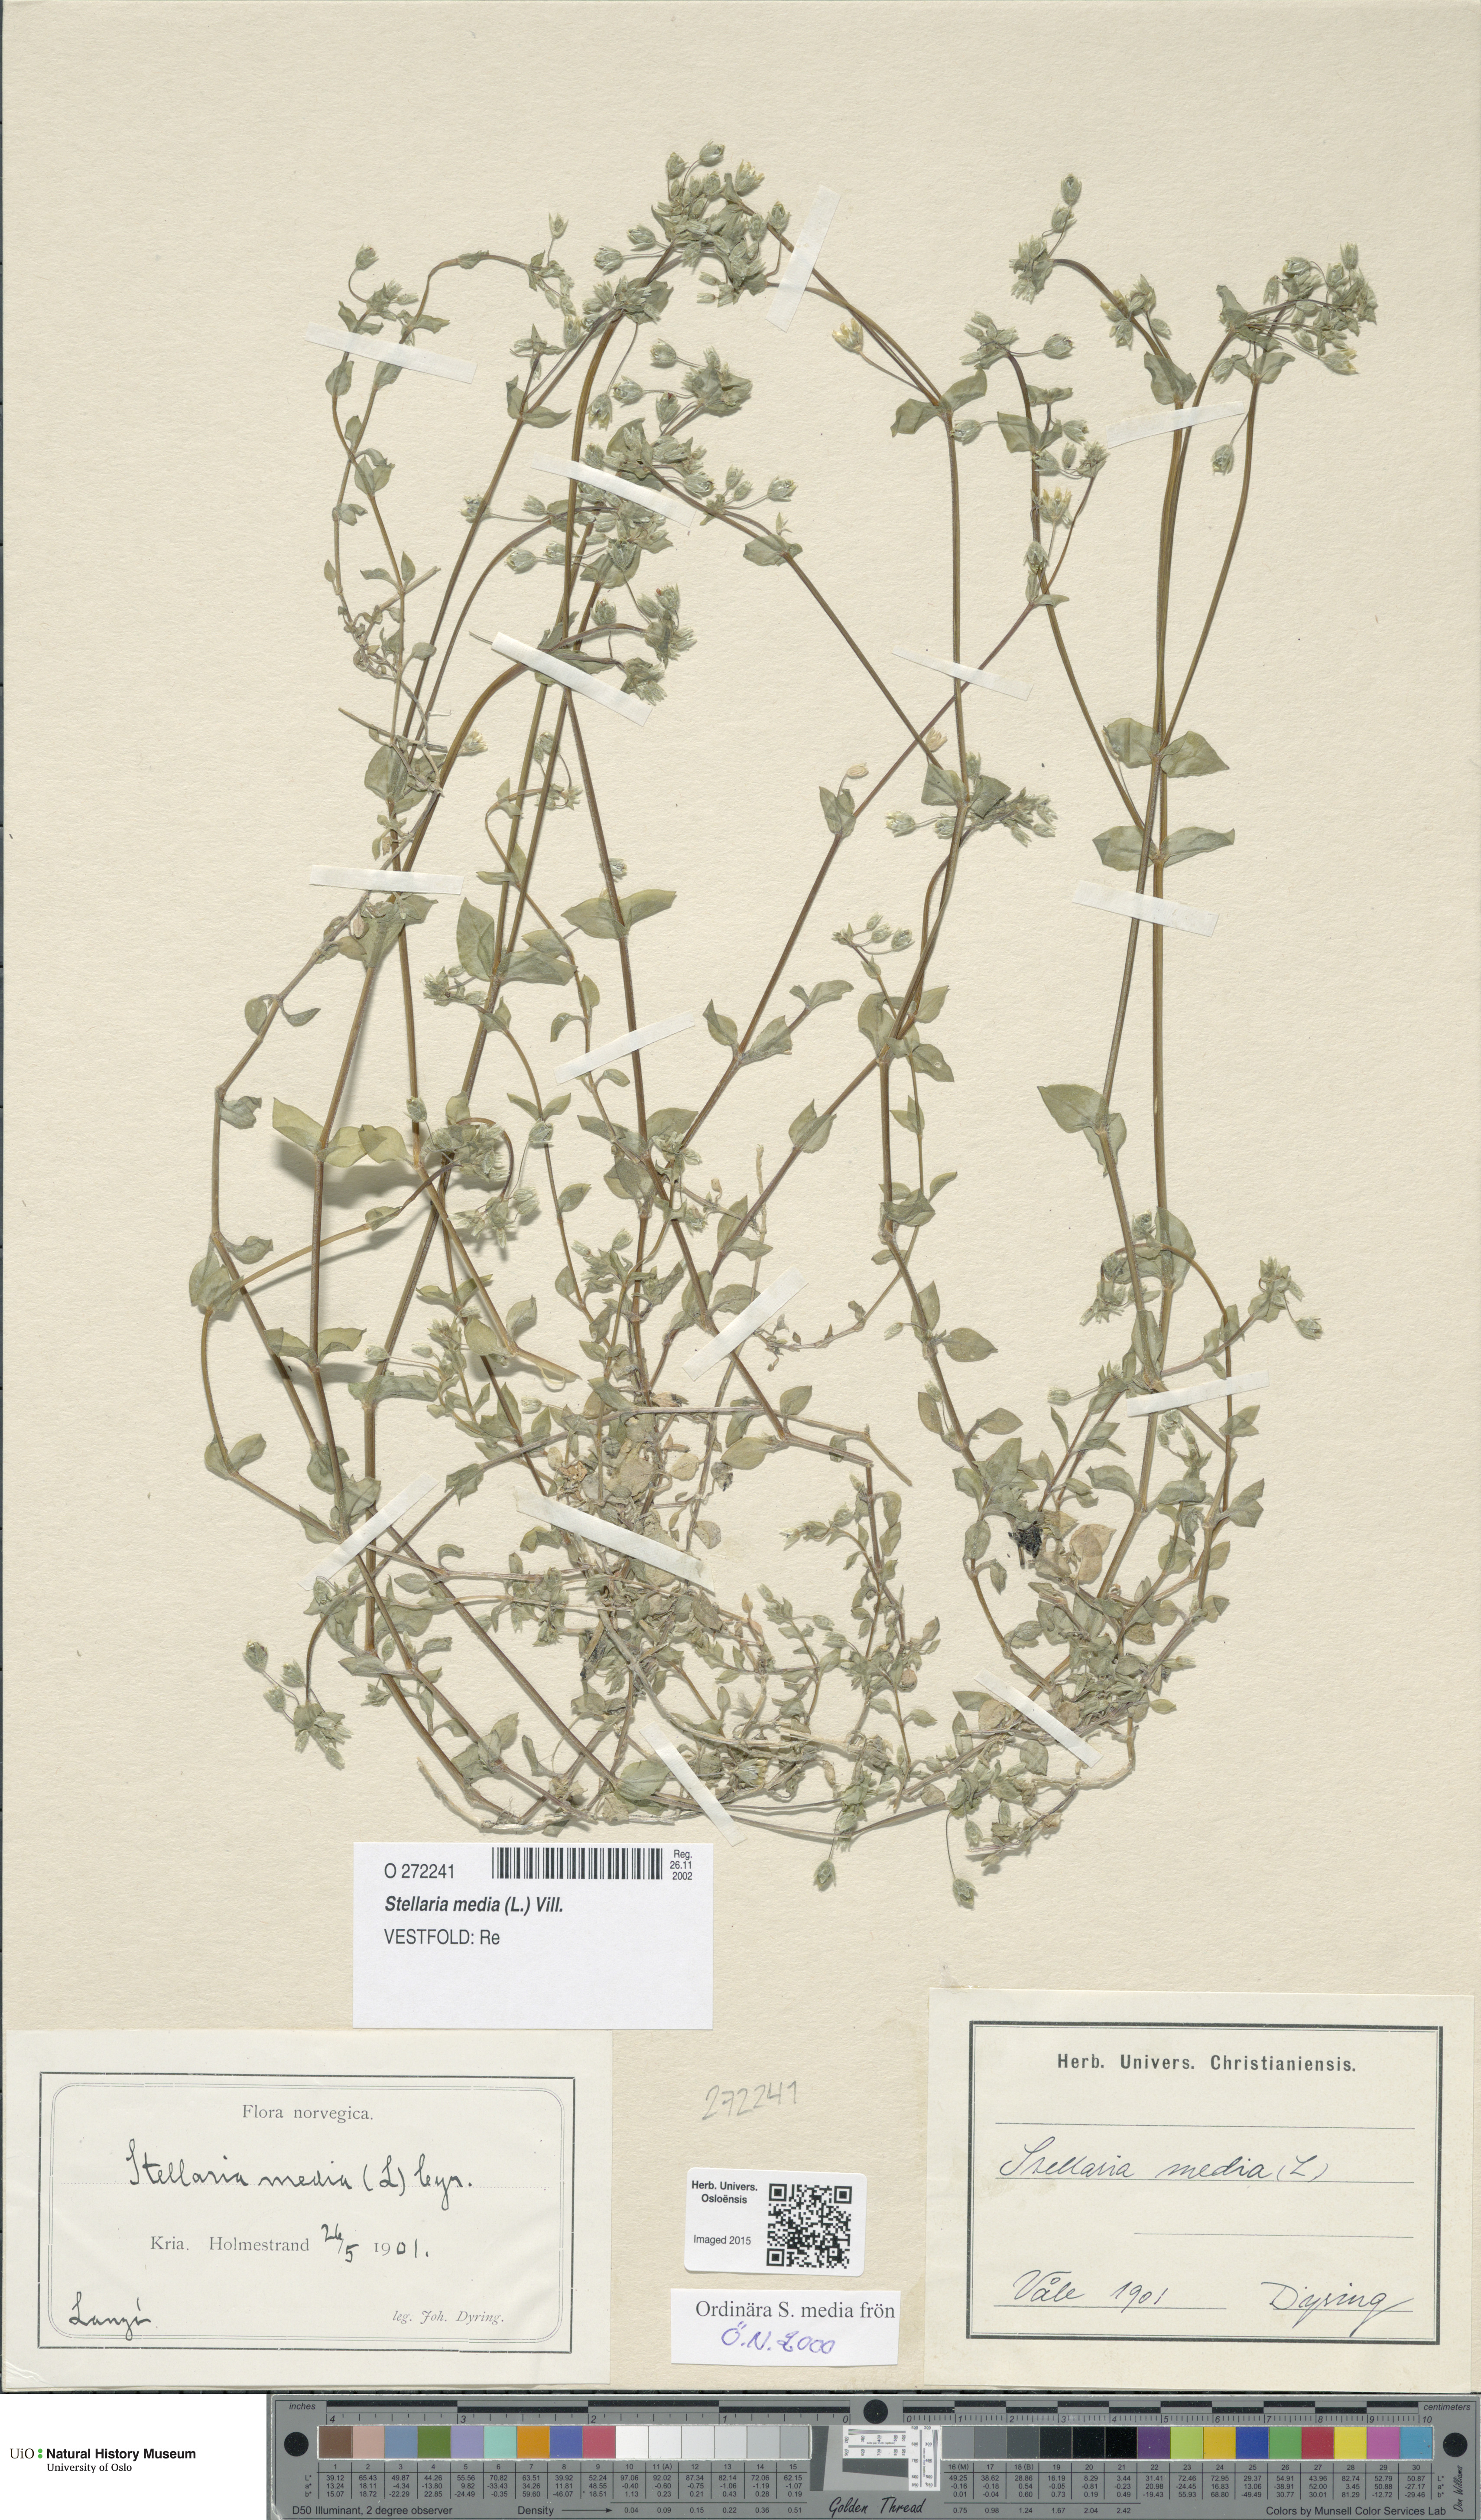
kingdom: Plantae
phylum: Tracheophyta
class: Magnoliopsida
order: Caryophyllales
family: Caryophyllaceae
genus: Stellaria
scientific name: Stellaria media
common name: Common chickweed
